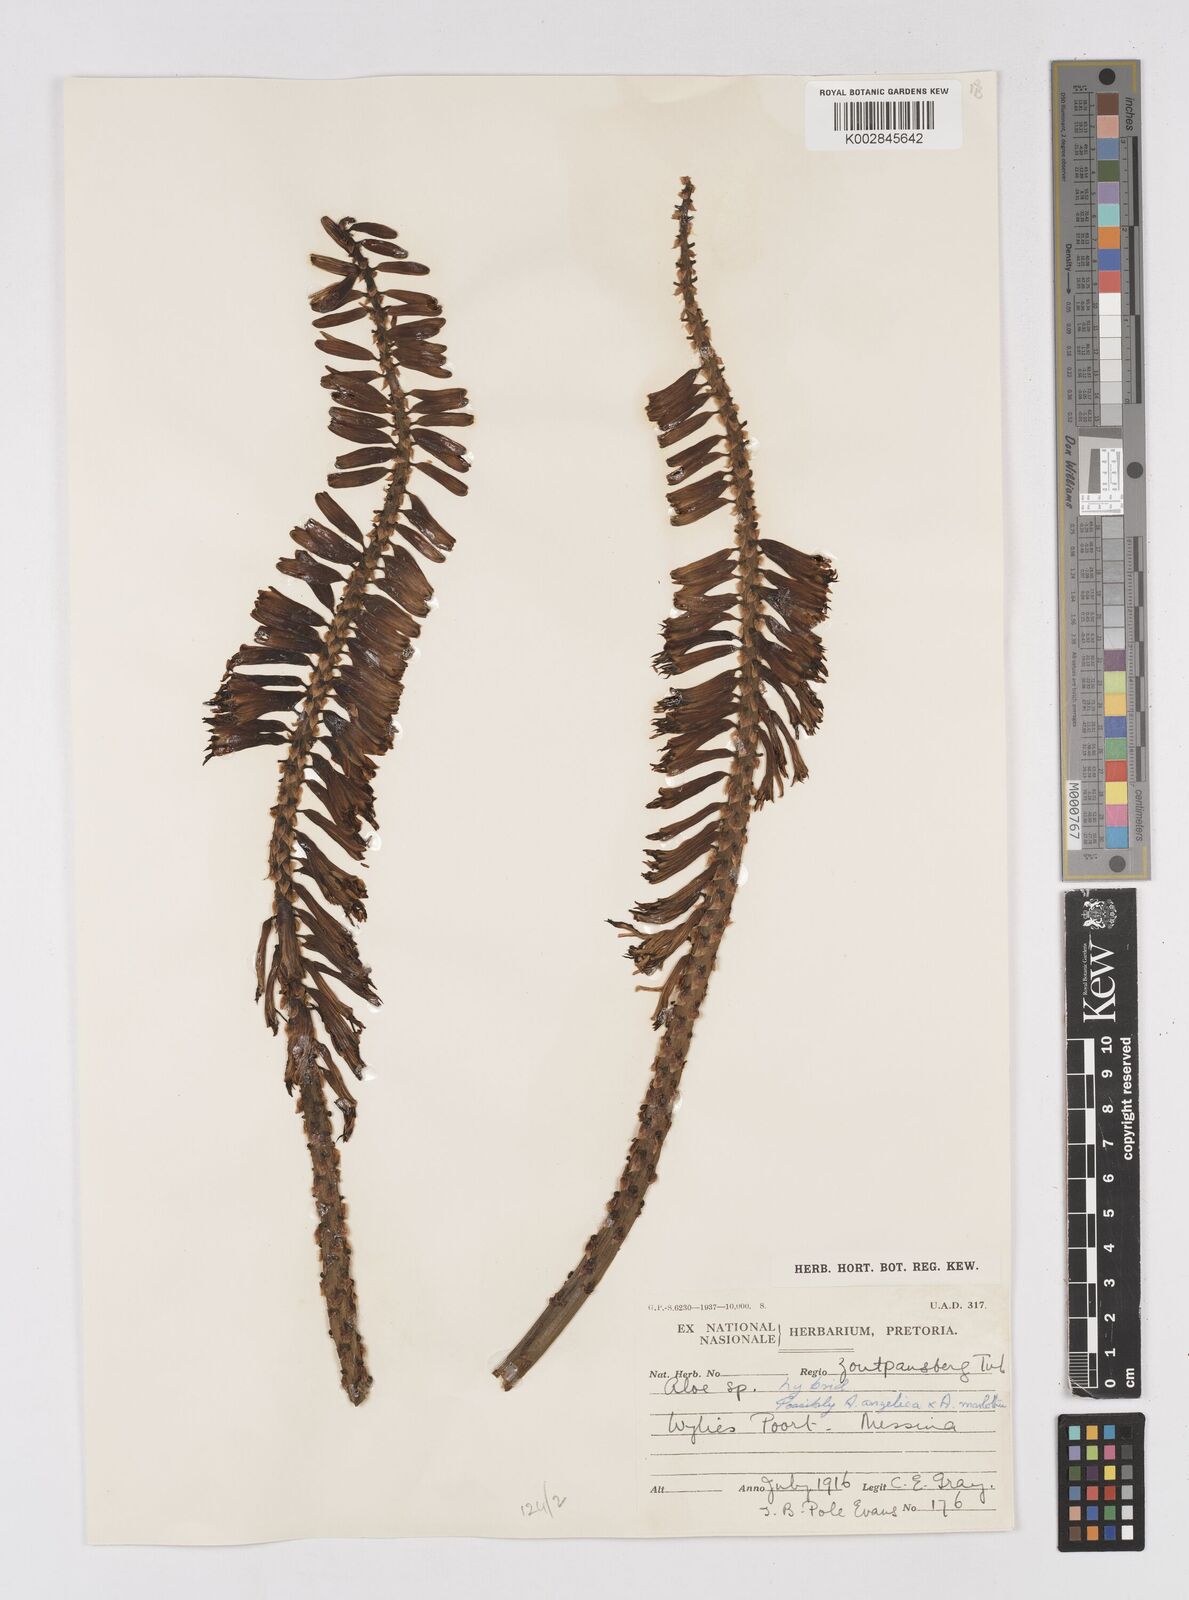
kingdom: Plantae
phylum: Tracheophyta
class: Liliopsida
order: Asparagales
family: Asphodelaceae
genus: Aloe
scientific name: Aloe angelica
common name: Wylliespoort aloe
